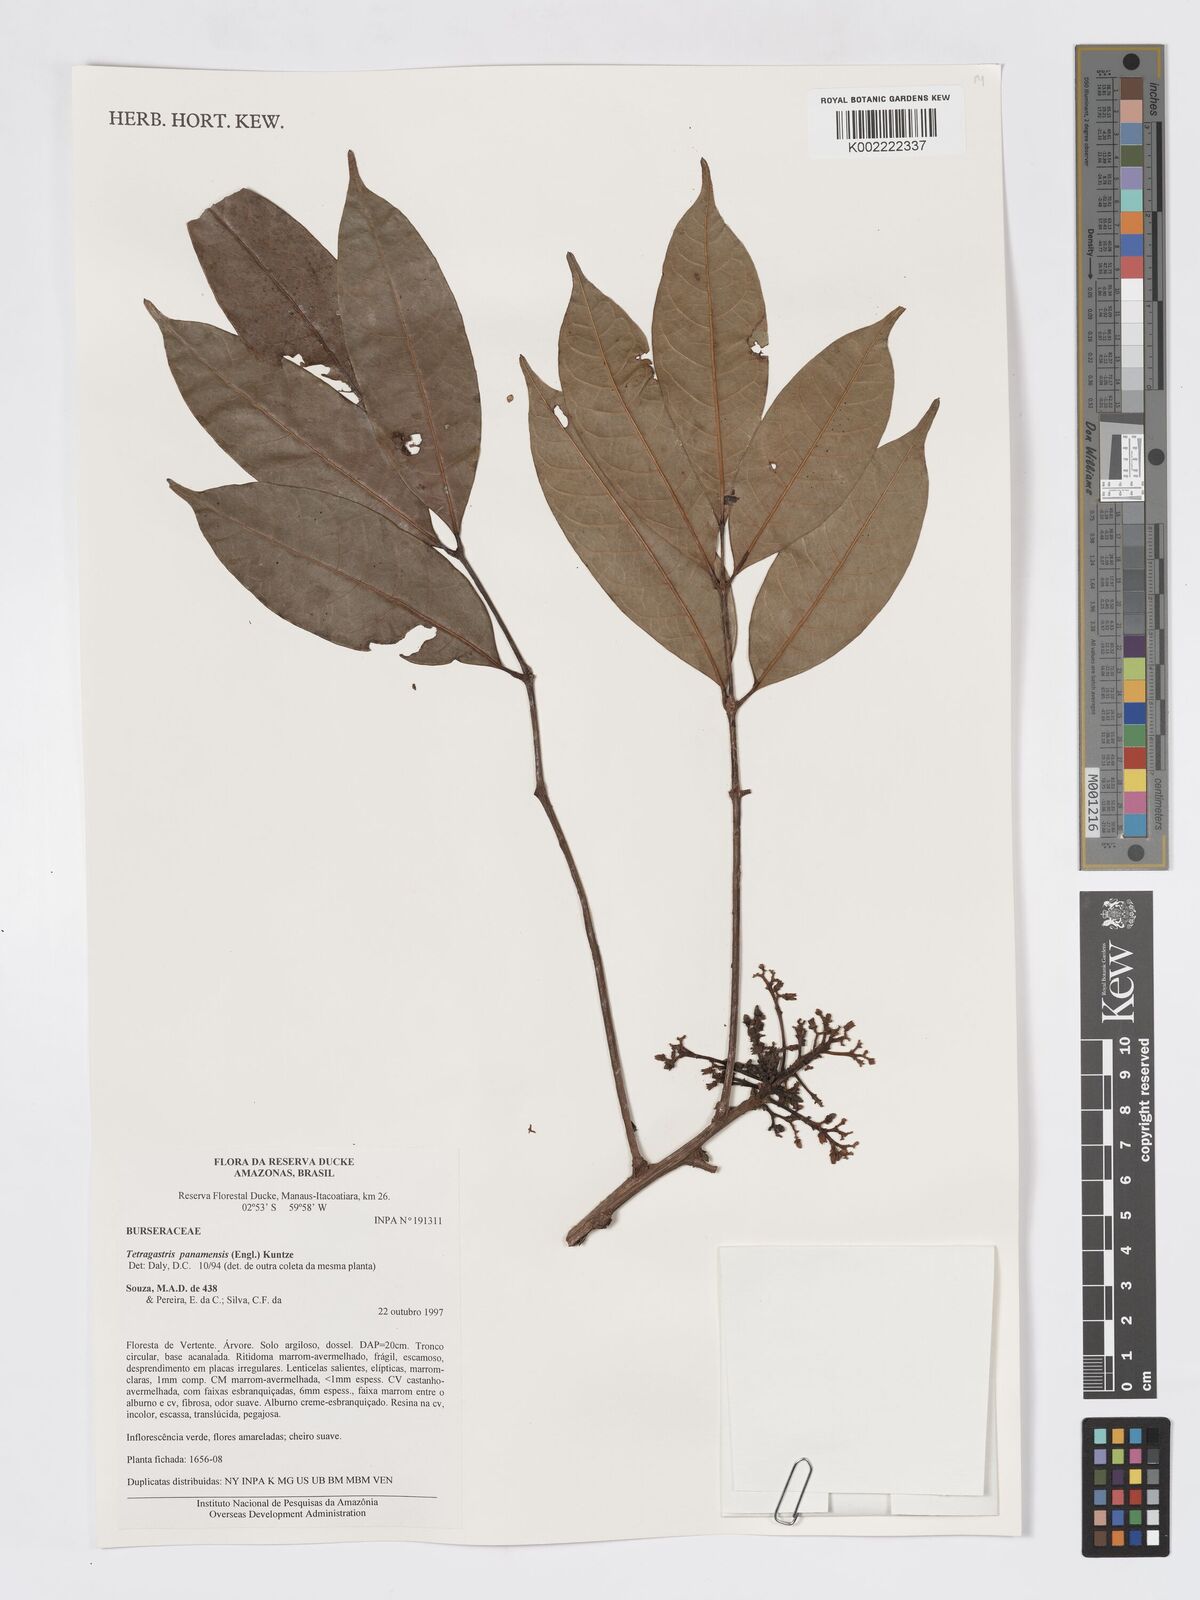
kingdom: Plantae
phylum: Tracheophyta
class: Magnoliopsida
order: Sapindales
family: Burseraceae
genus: Tetragastris
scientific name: Tetragastris panamensis
